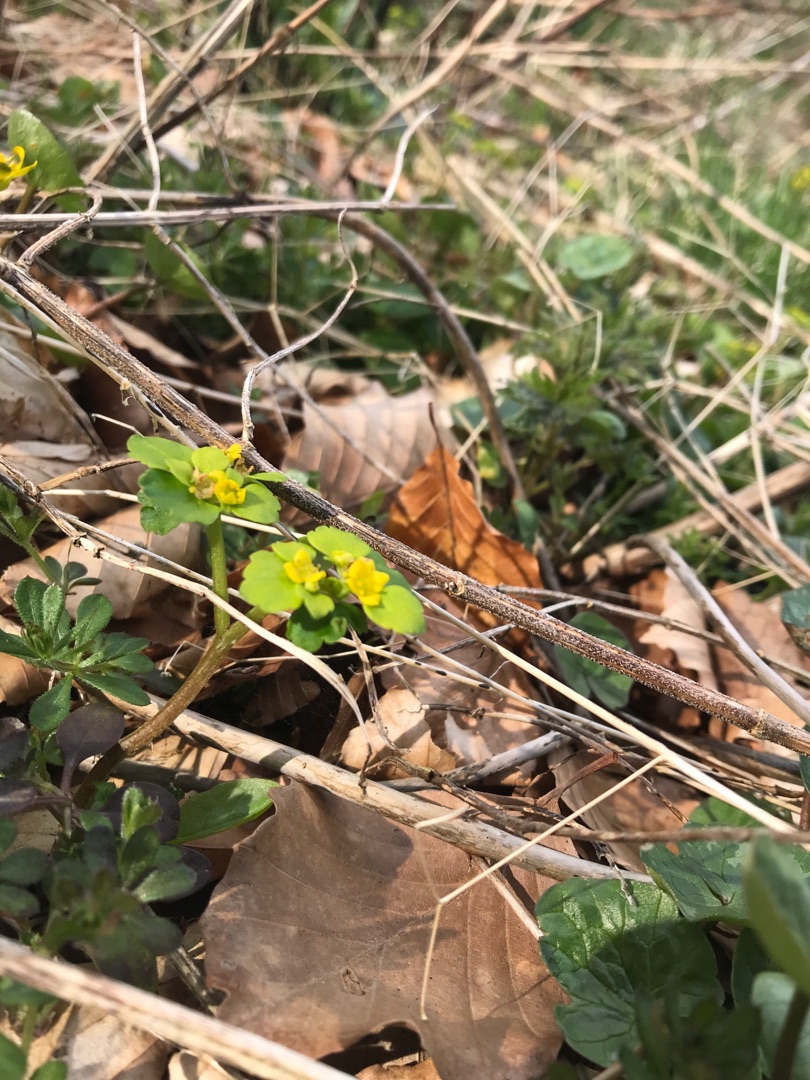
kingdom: Plantae
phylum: Tracheophyta
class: Magnoliopsida
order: Saxifragales
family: Saxifragaceae
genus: Chrysosplenium
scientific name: Chrysosplenium alternifolium
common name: Almindelig milturt
